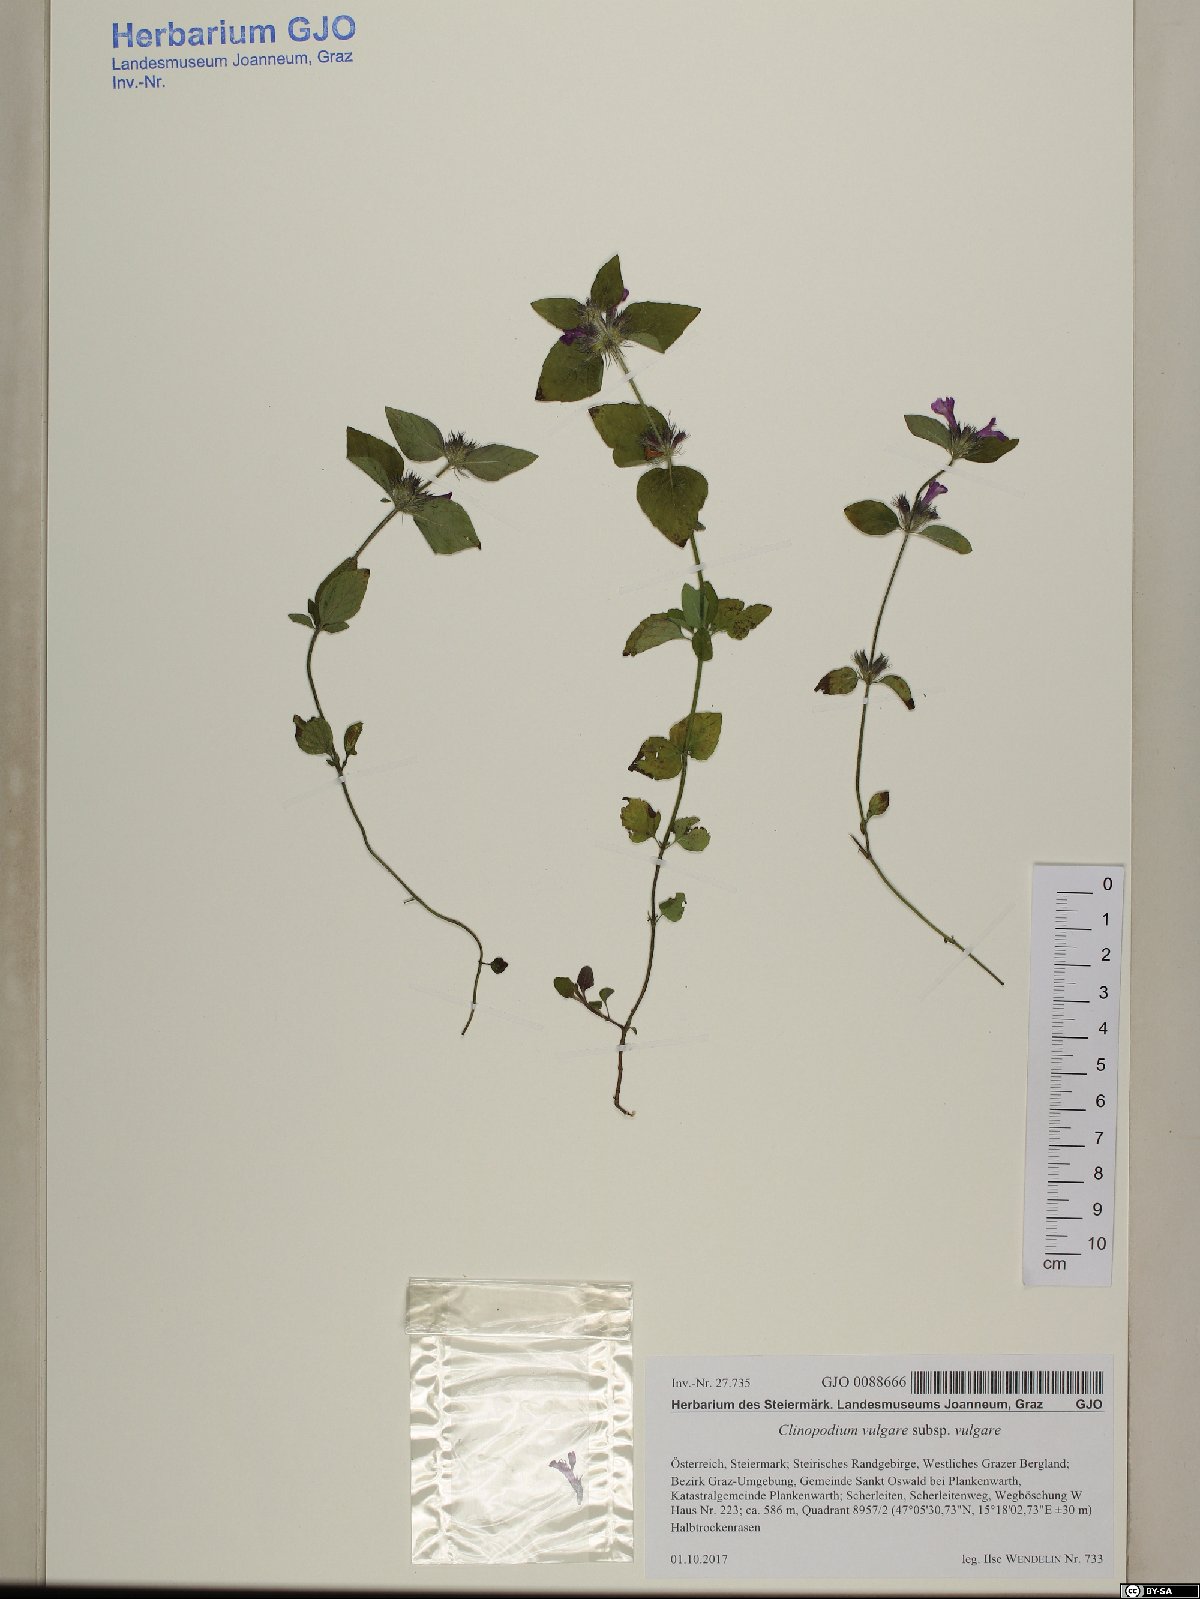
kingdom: Plantae
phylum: Tracheophyta
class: Magnoliopsida
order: Lamiales
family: Lamiaceae
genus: Clinopodium
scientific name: Clinopodium vulgare
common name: Wild basil
